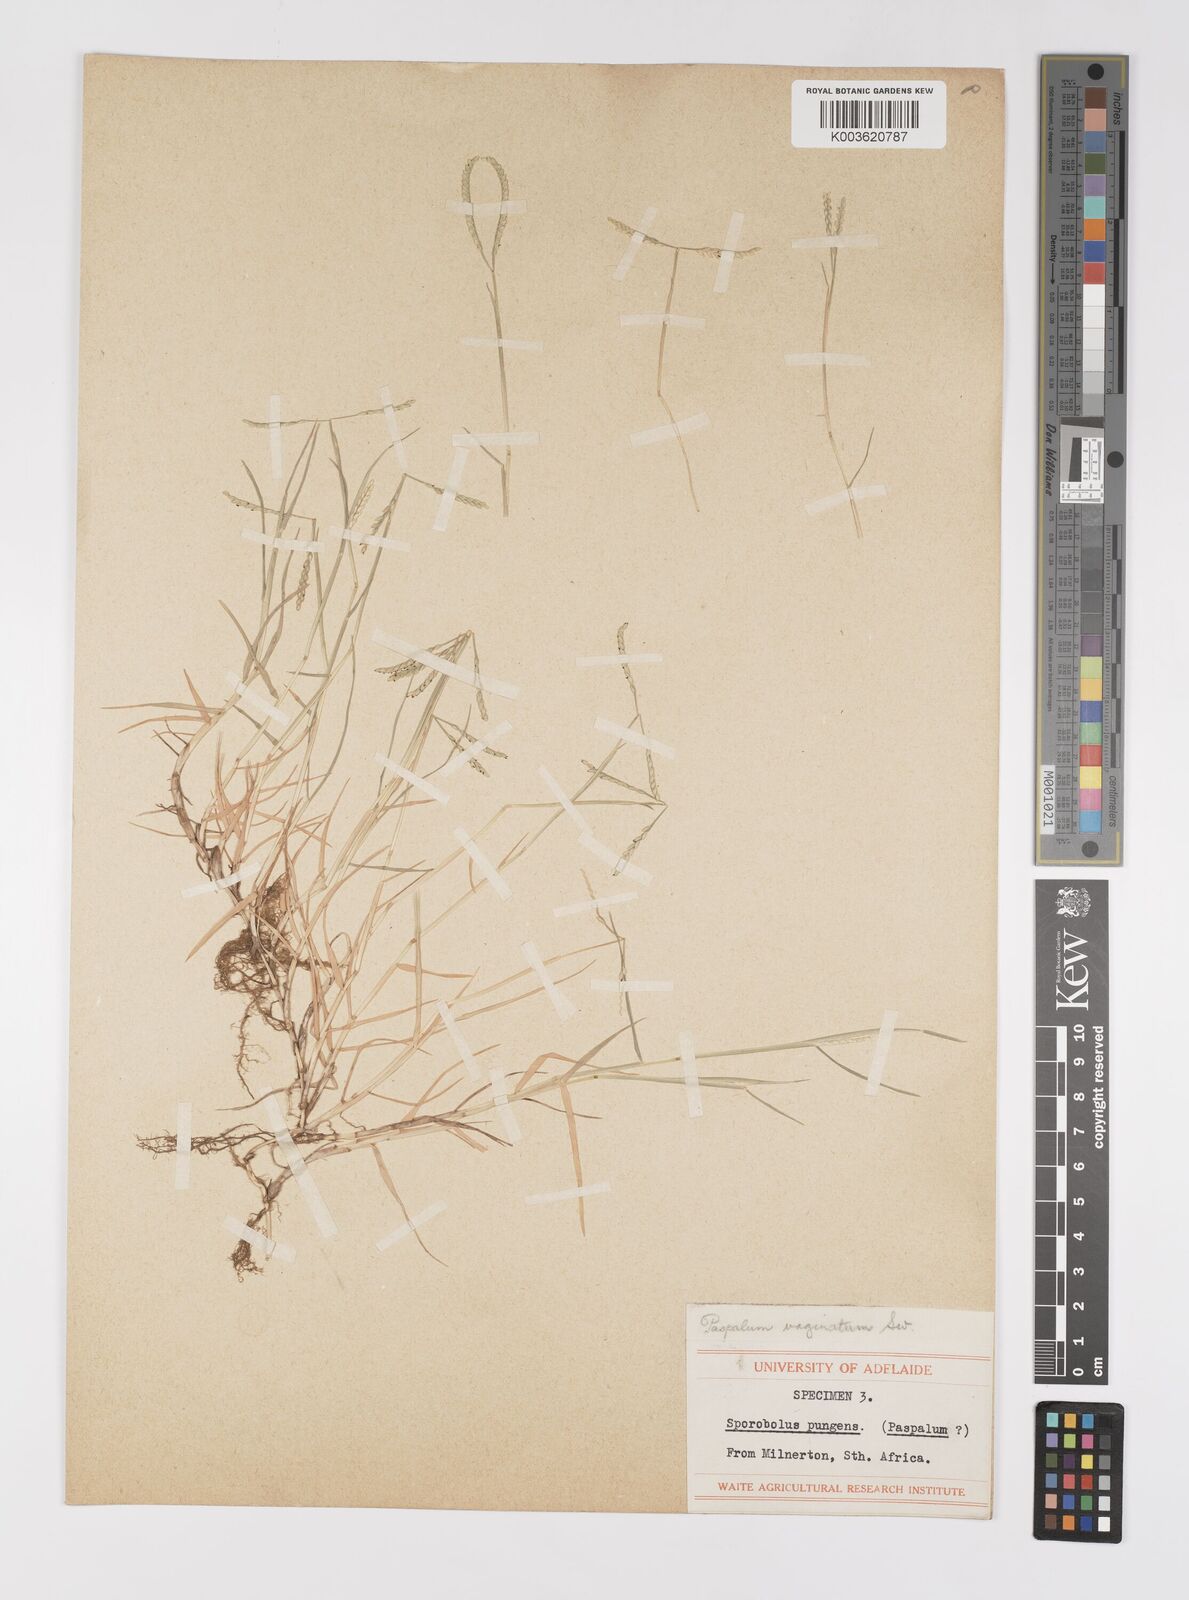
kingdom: Plantae
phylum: Tracheophyta
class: Liliopsida
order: Poales
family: Poaceae
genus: Paspalum
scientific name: Paspalum vaginatum
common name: Seashore paspalum
